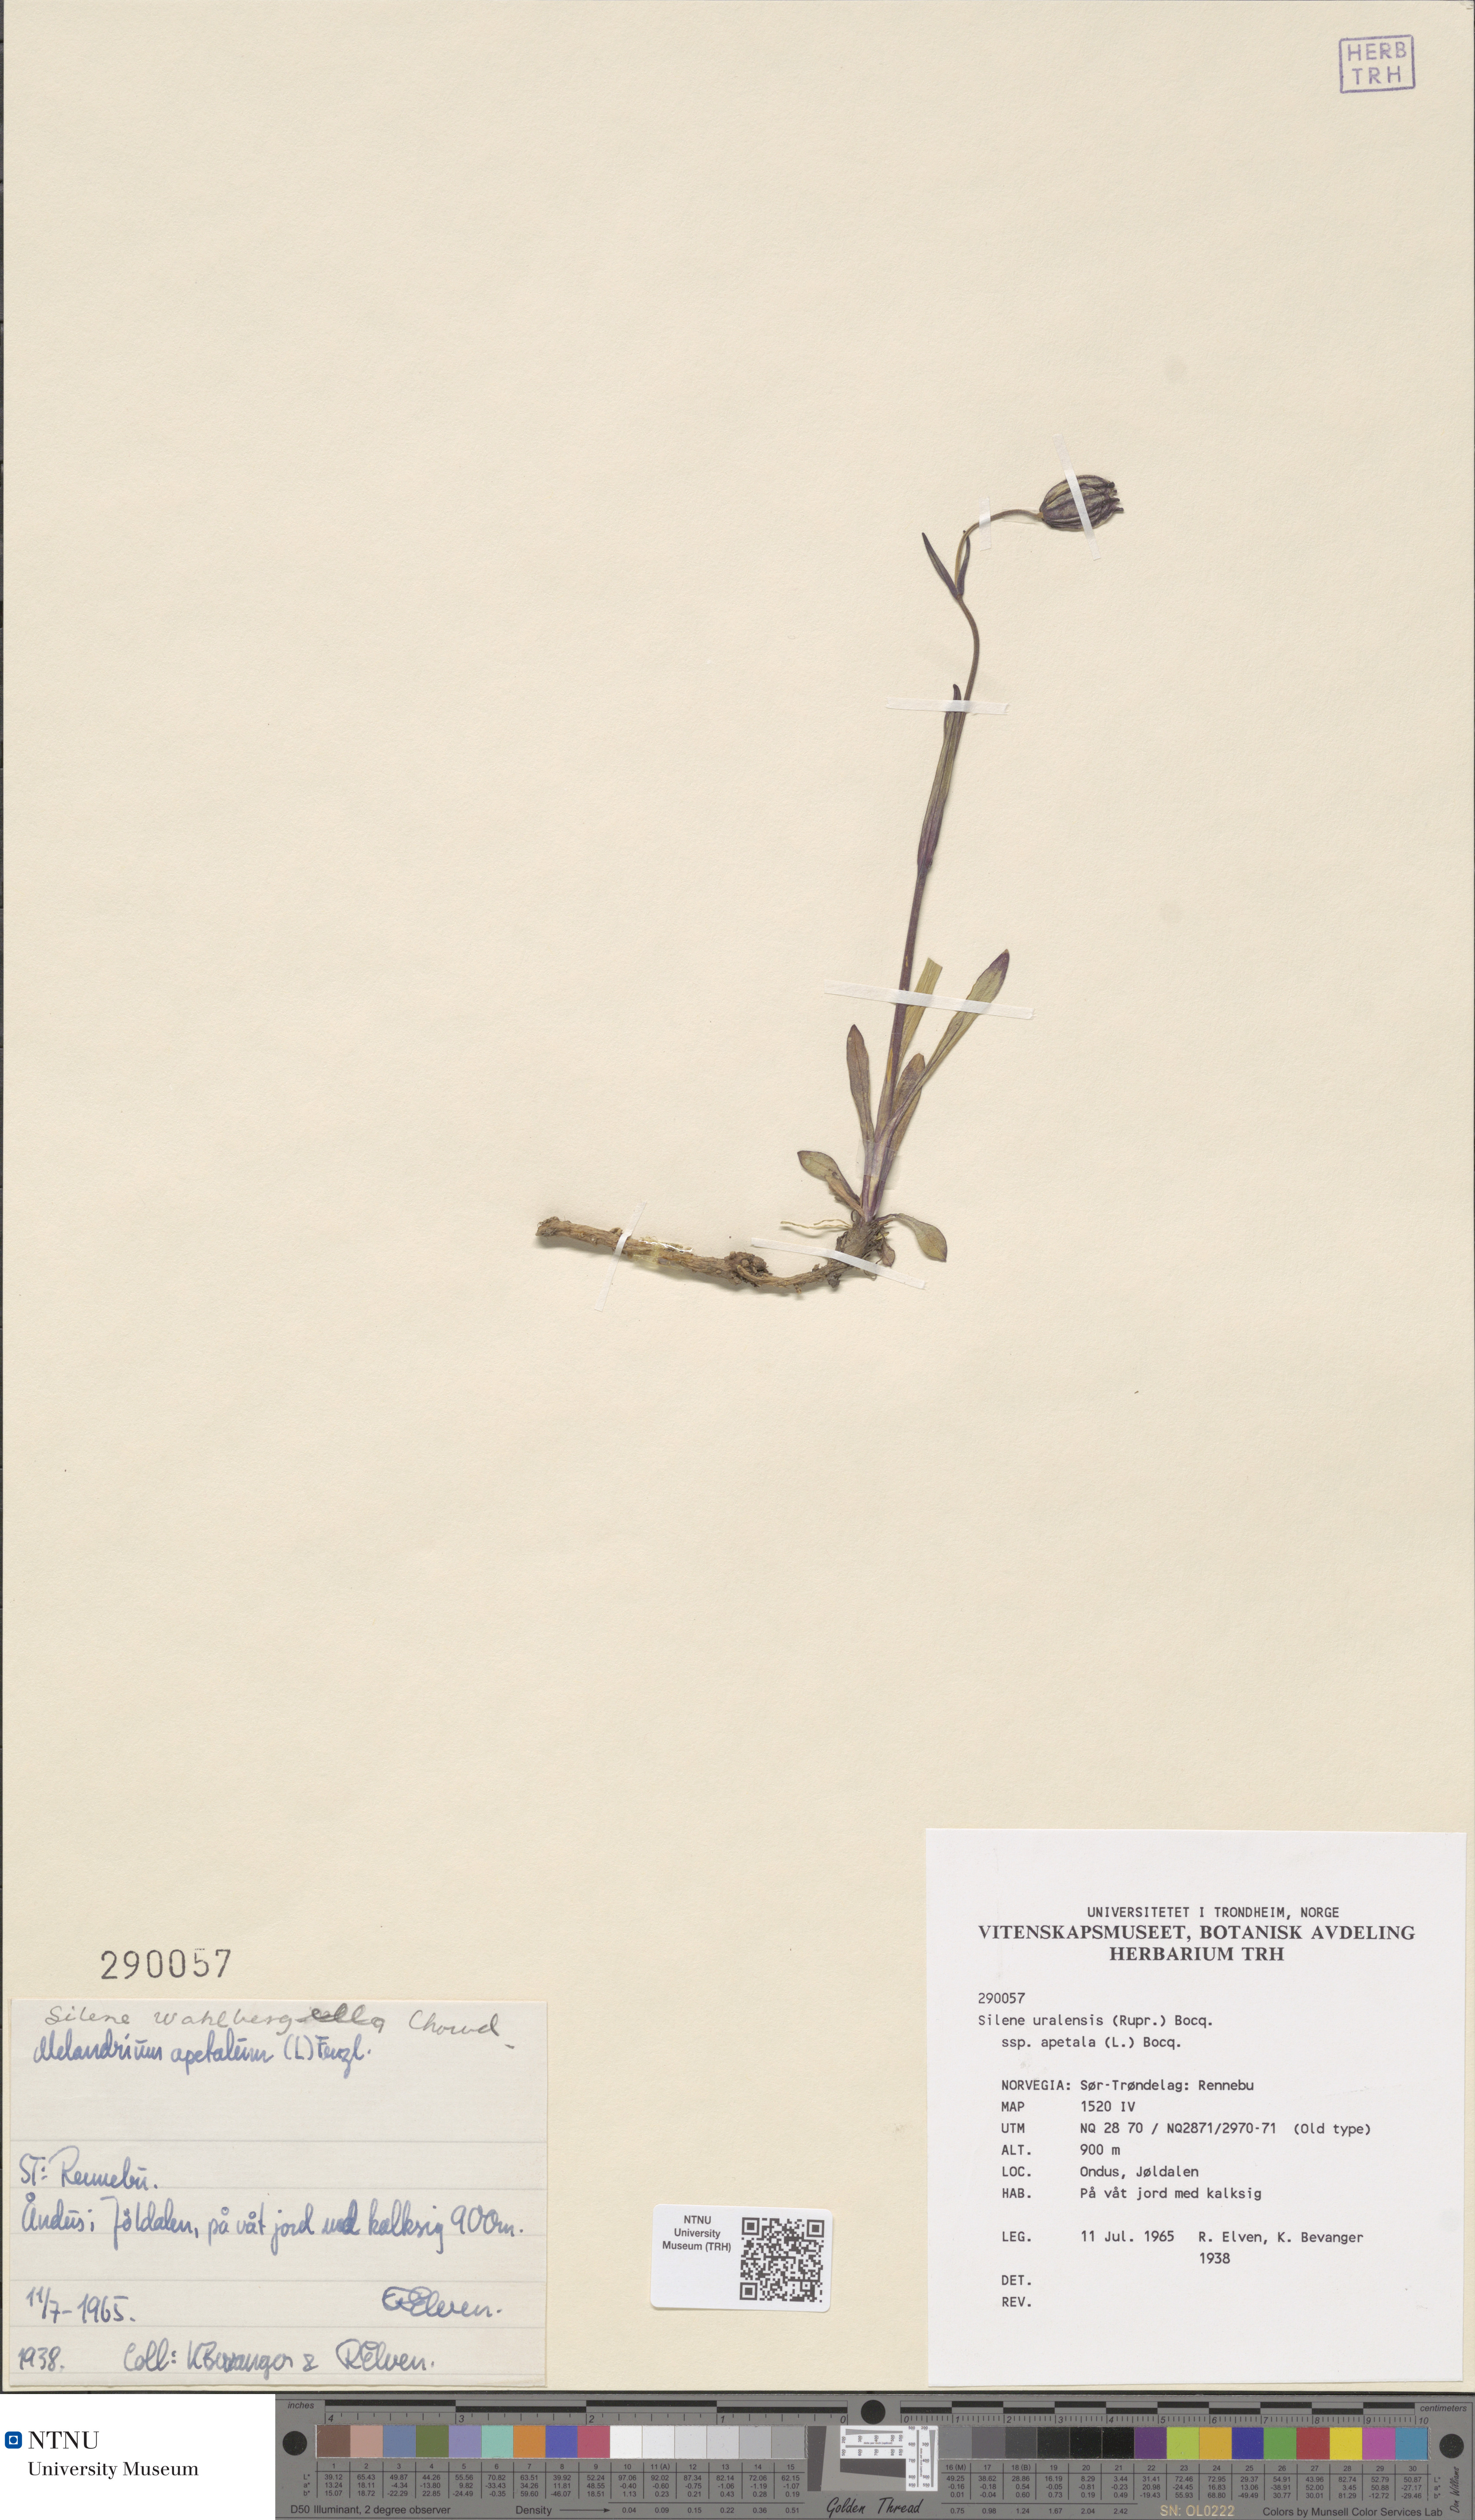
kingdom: Plantae
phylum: Tracheophyta
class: Magnoliopsida
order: Caryophyllales
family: Caryophyllaceae
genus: Silene
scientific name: Silene wahlbergella
